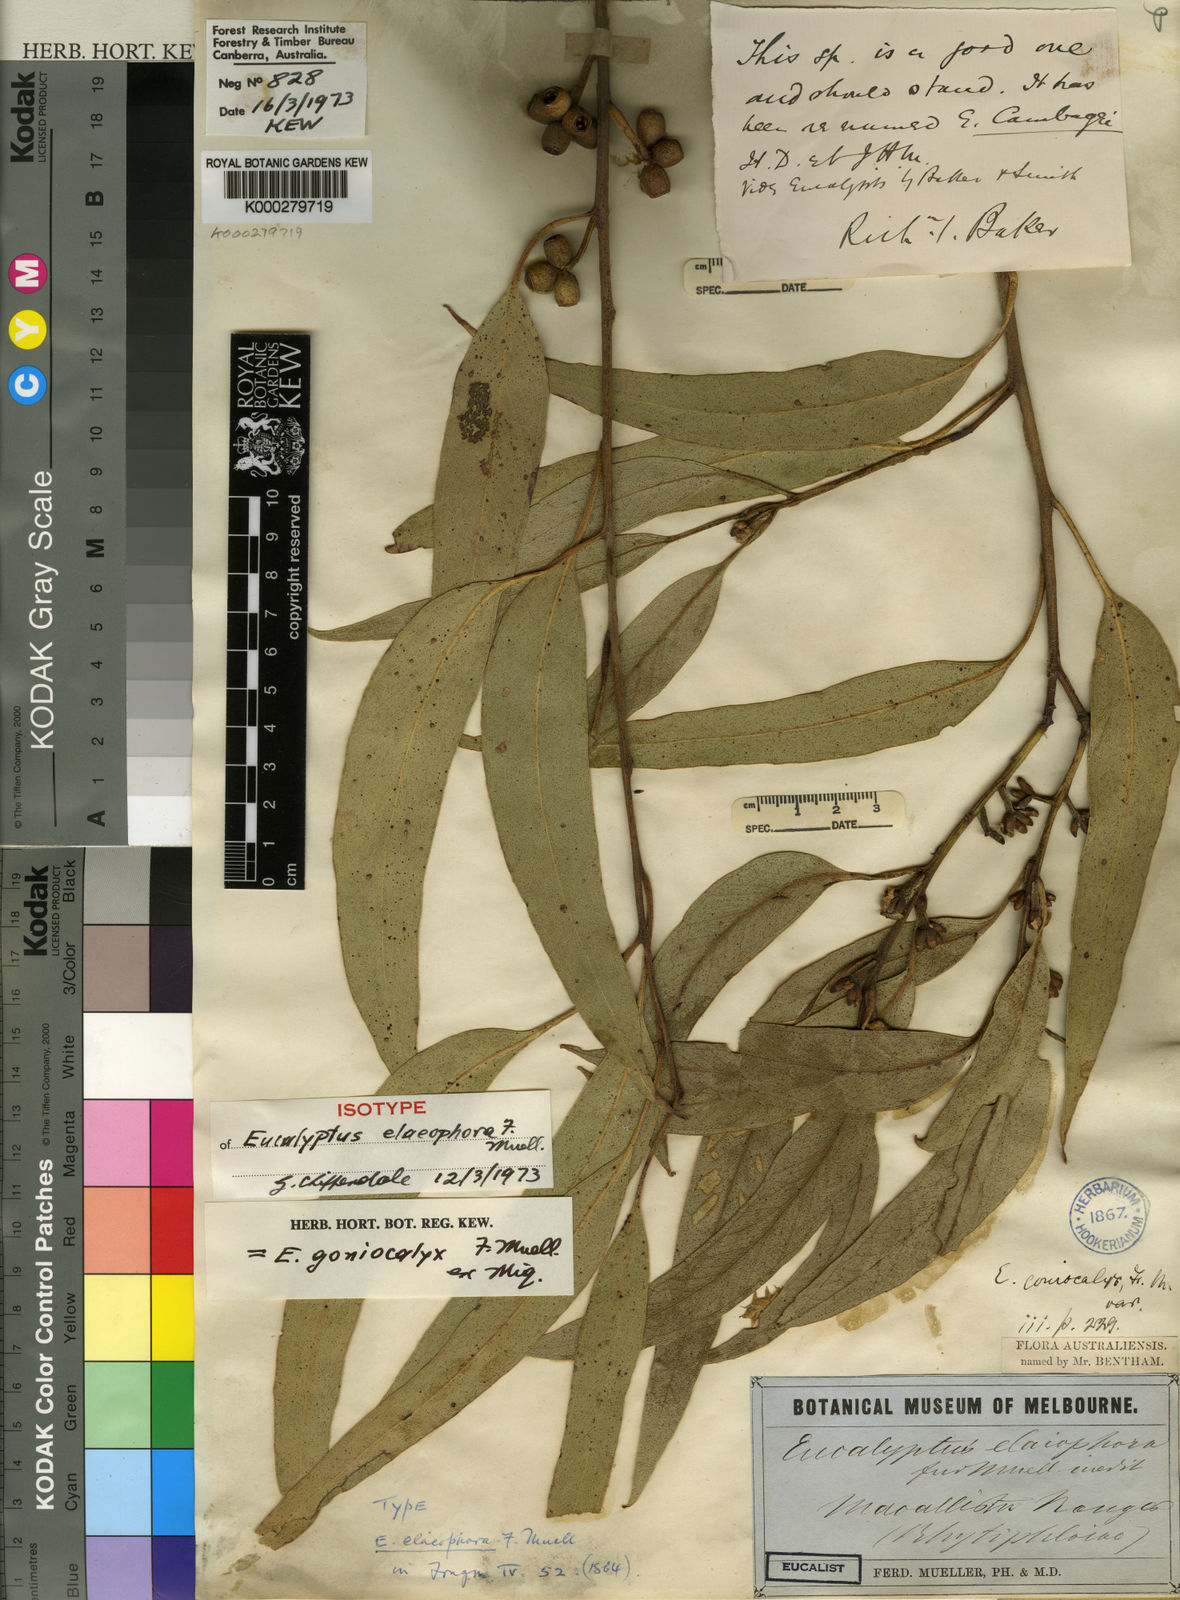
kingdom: Plantae
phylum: Tracheophyta
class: Magnoliopsida
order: Myrtales
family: Myrtaceae
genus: Eucalyptus
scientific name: Eucalyptus goniocalyx
